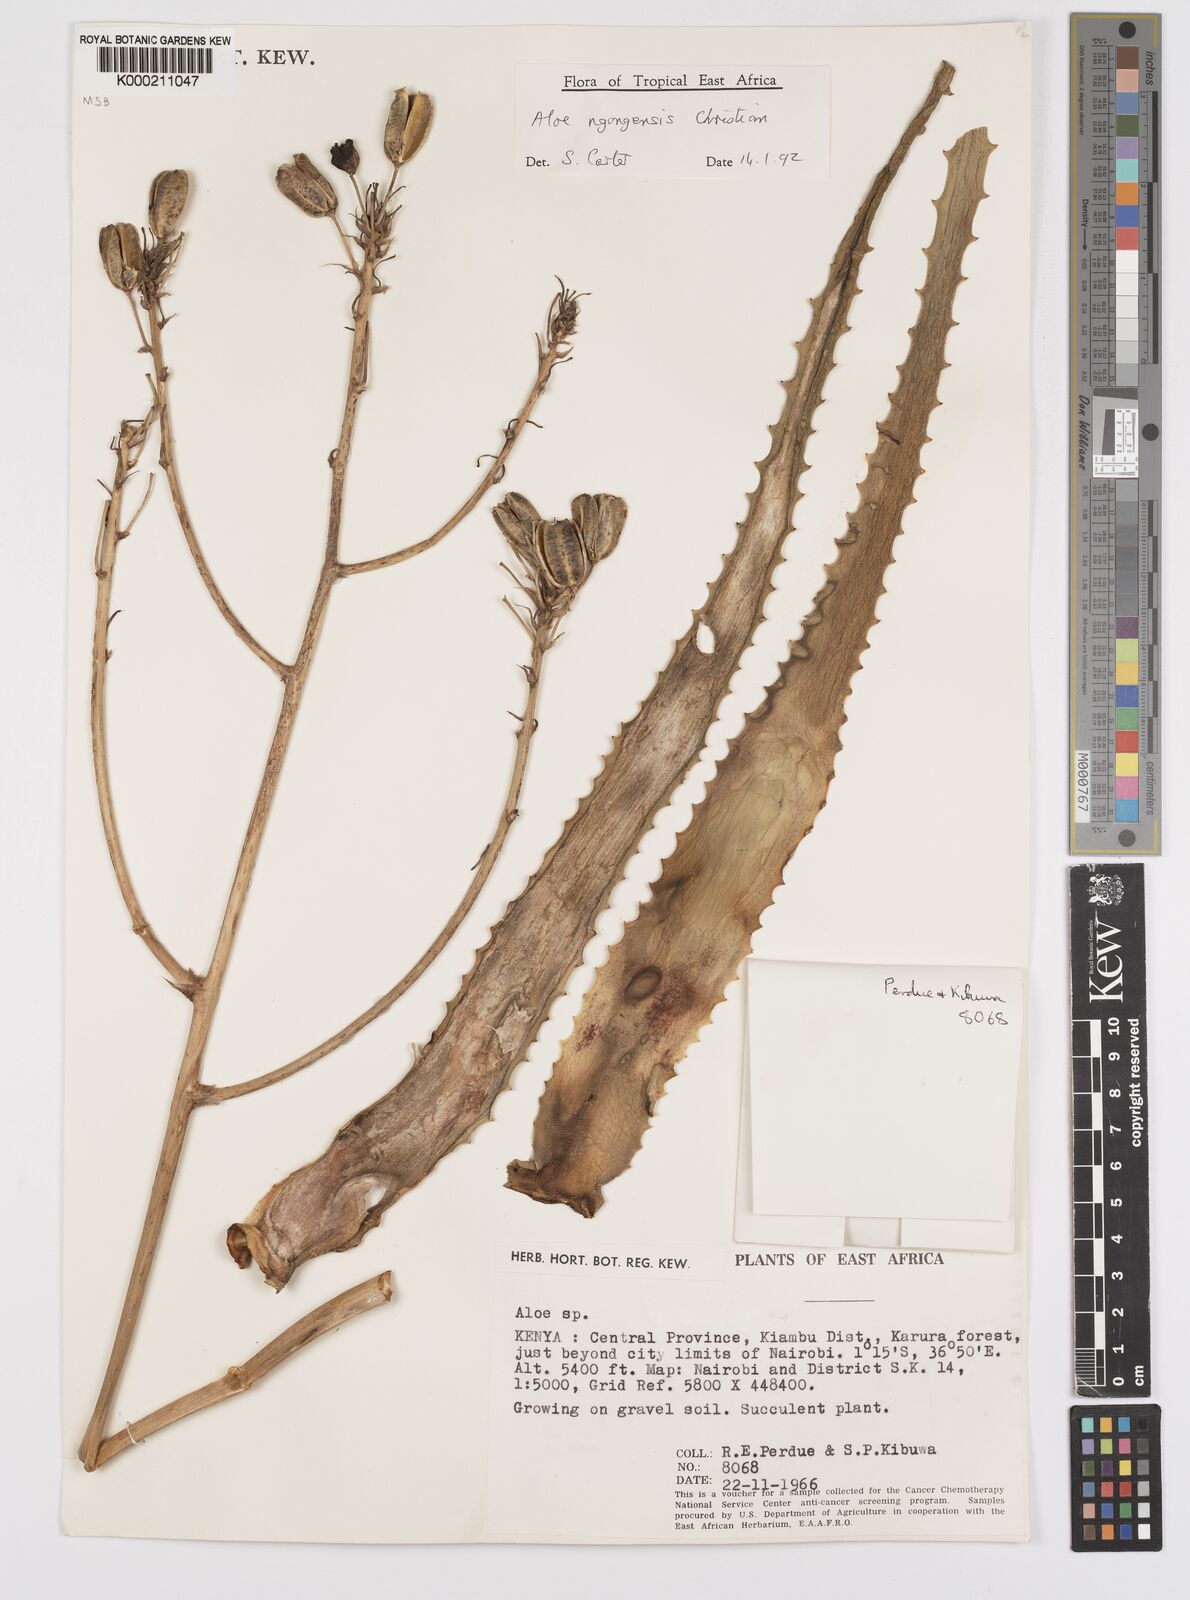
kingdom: Plantae
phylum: Tracheophyta
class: Liliopsida
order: Asparagales
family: Asphodelaceae
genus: Aloe
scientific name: Aloe ngongensis
